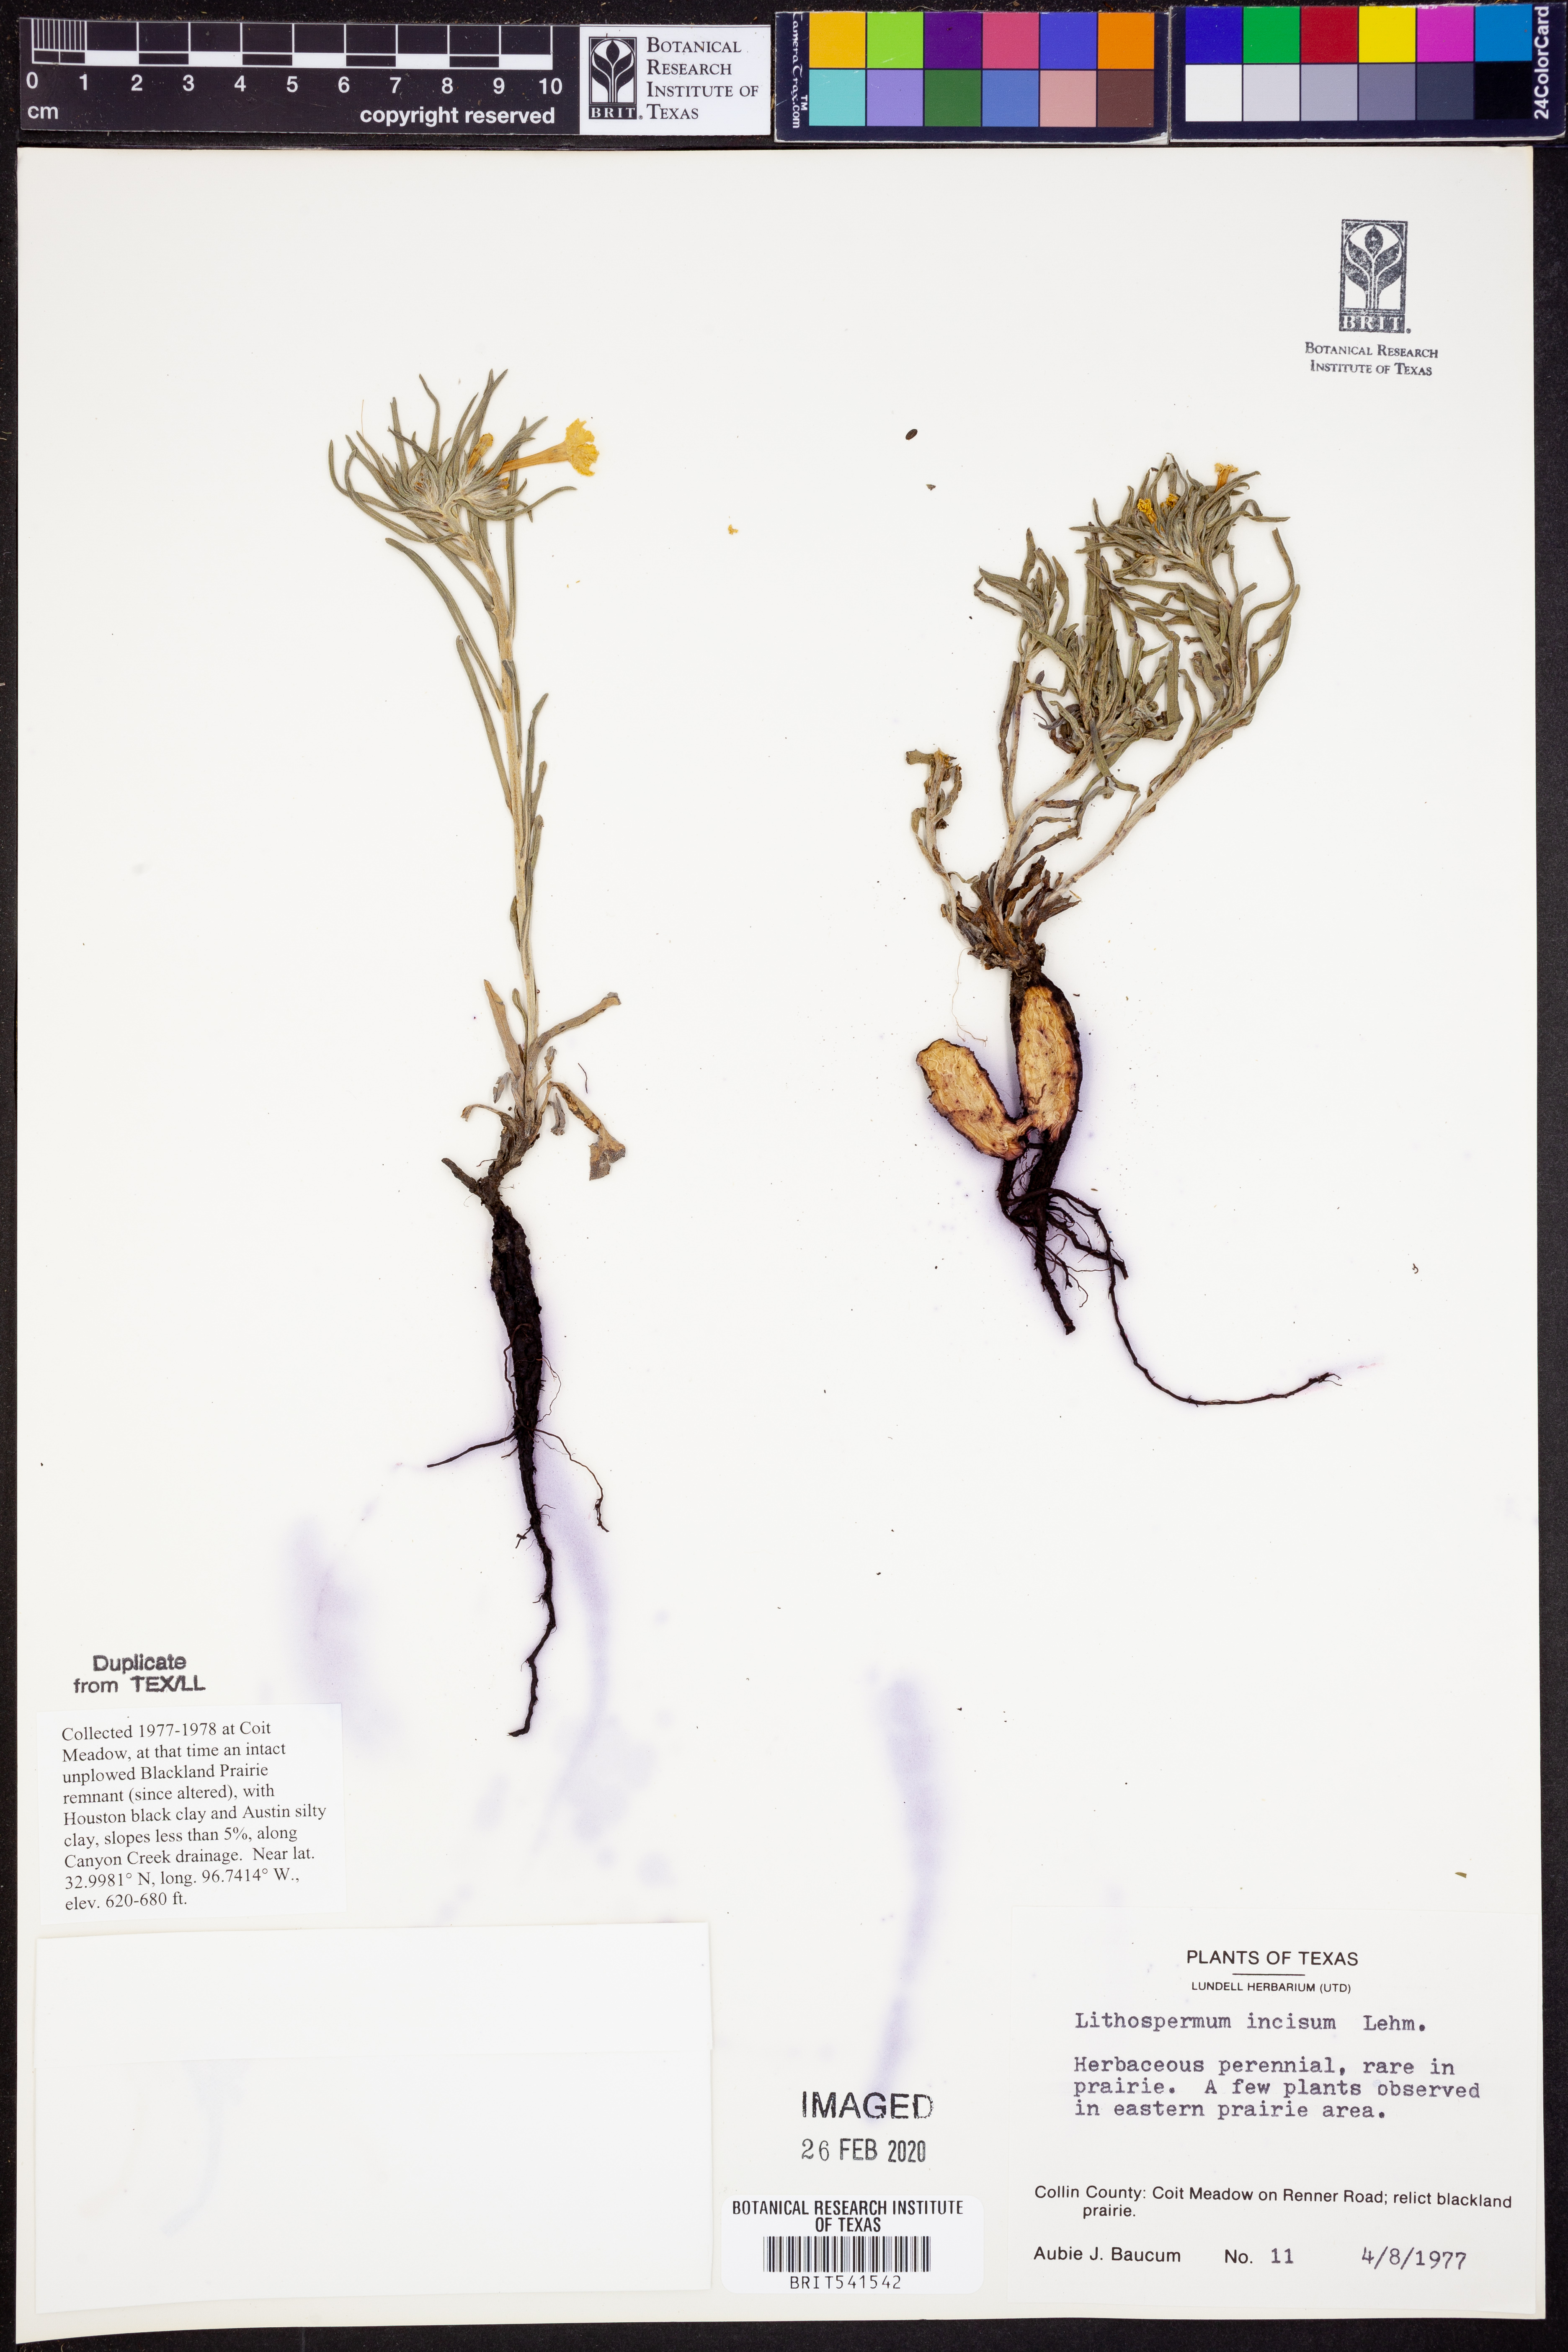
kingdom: Plantae
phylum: Tracheophyta
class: Magnoliopsida
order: Boraginales
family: Boraginaceae
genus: Lithospermum
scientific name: Lithospermum incisum
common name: Fringed gromwell
